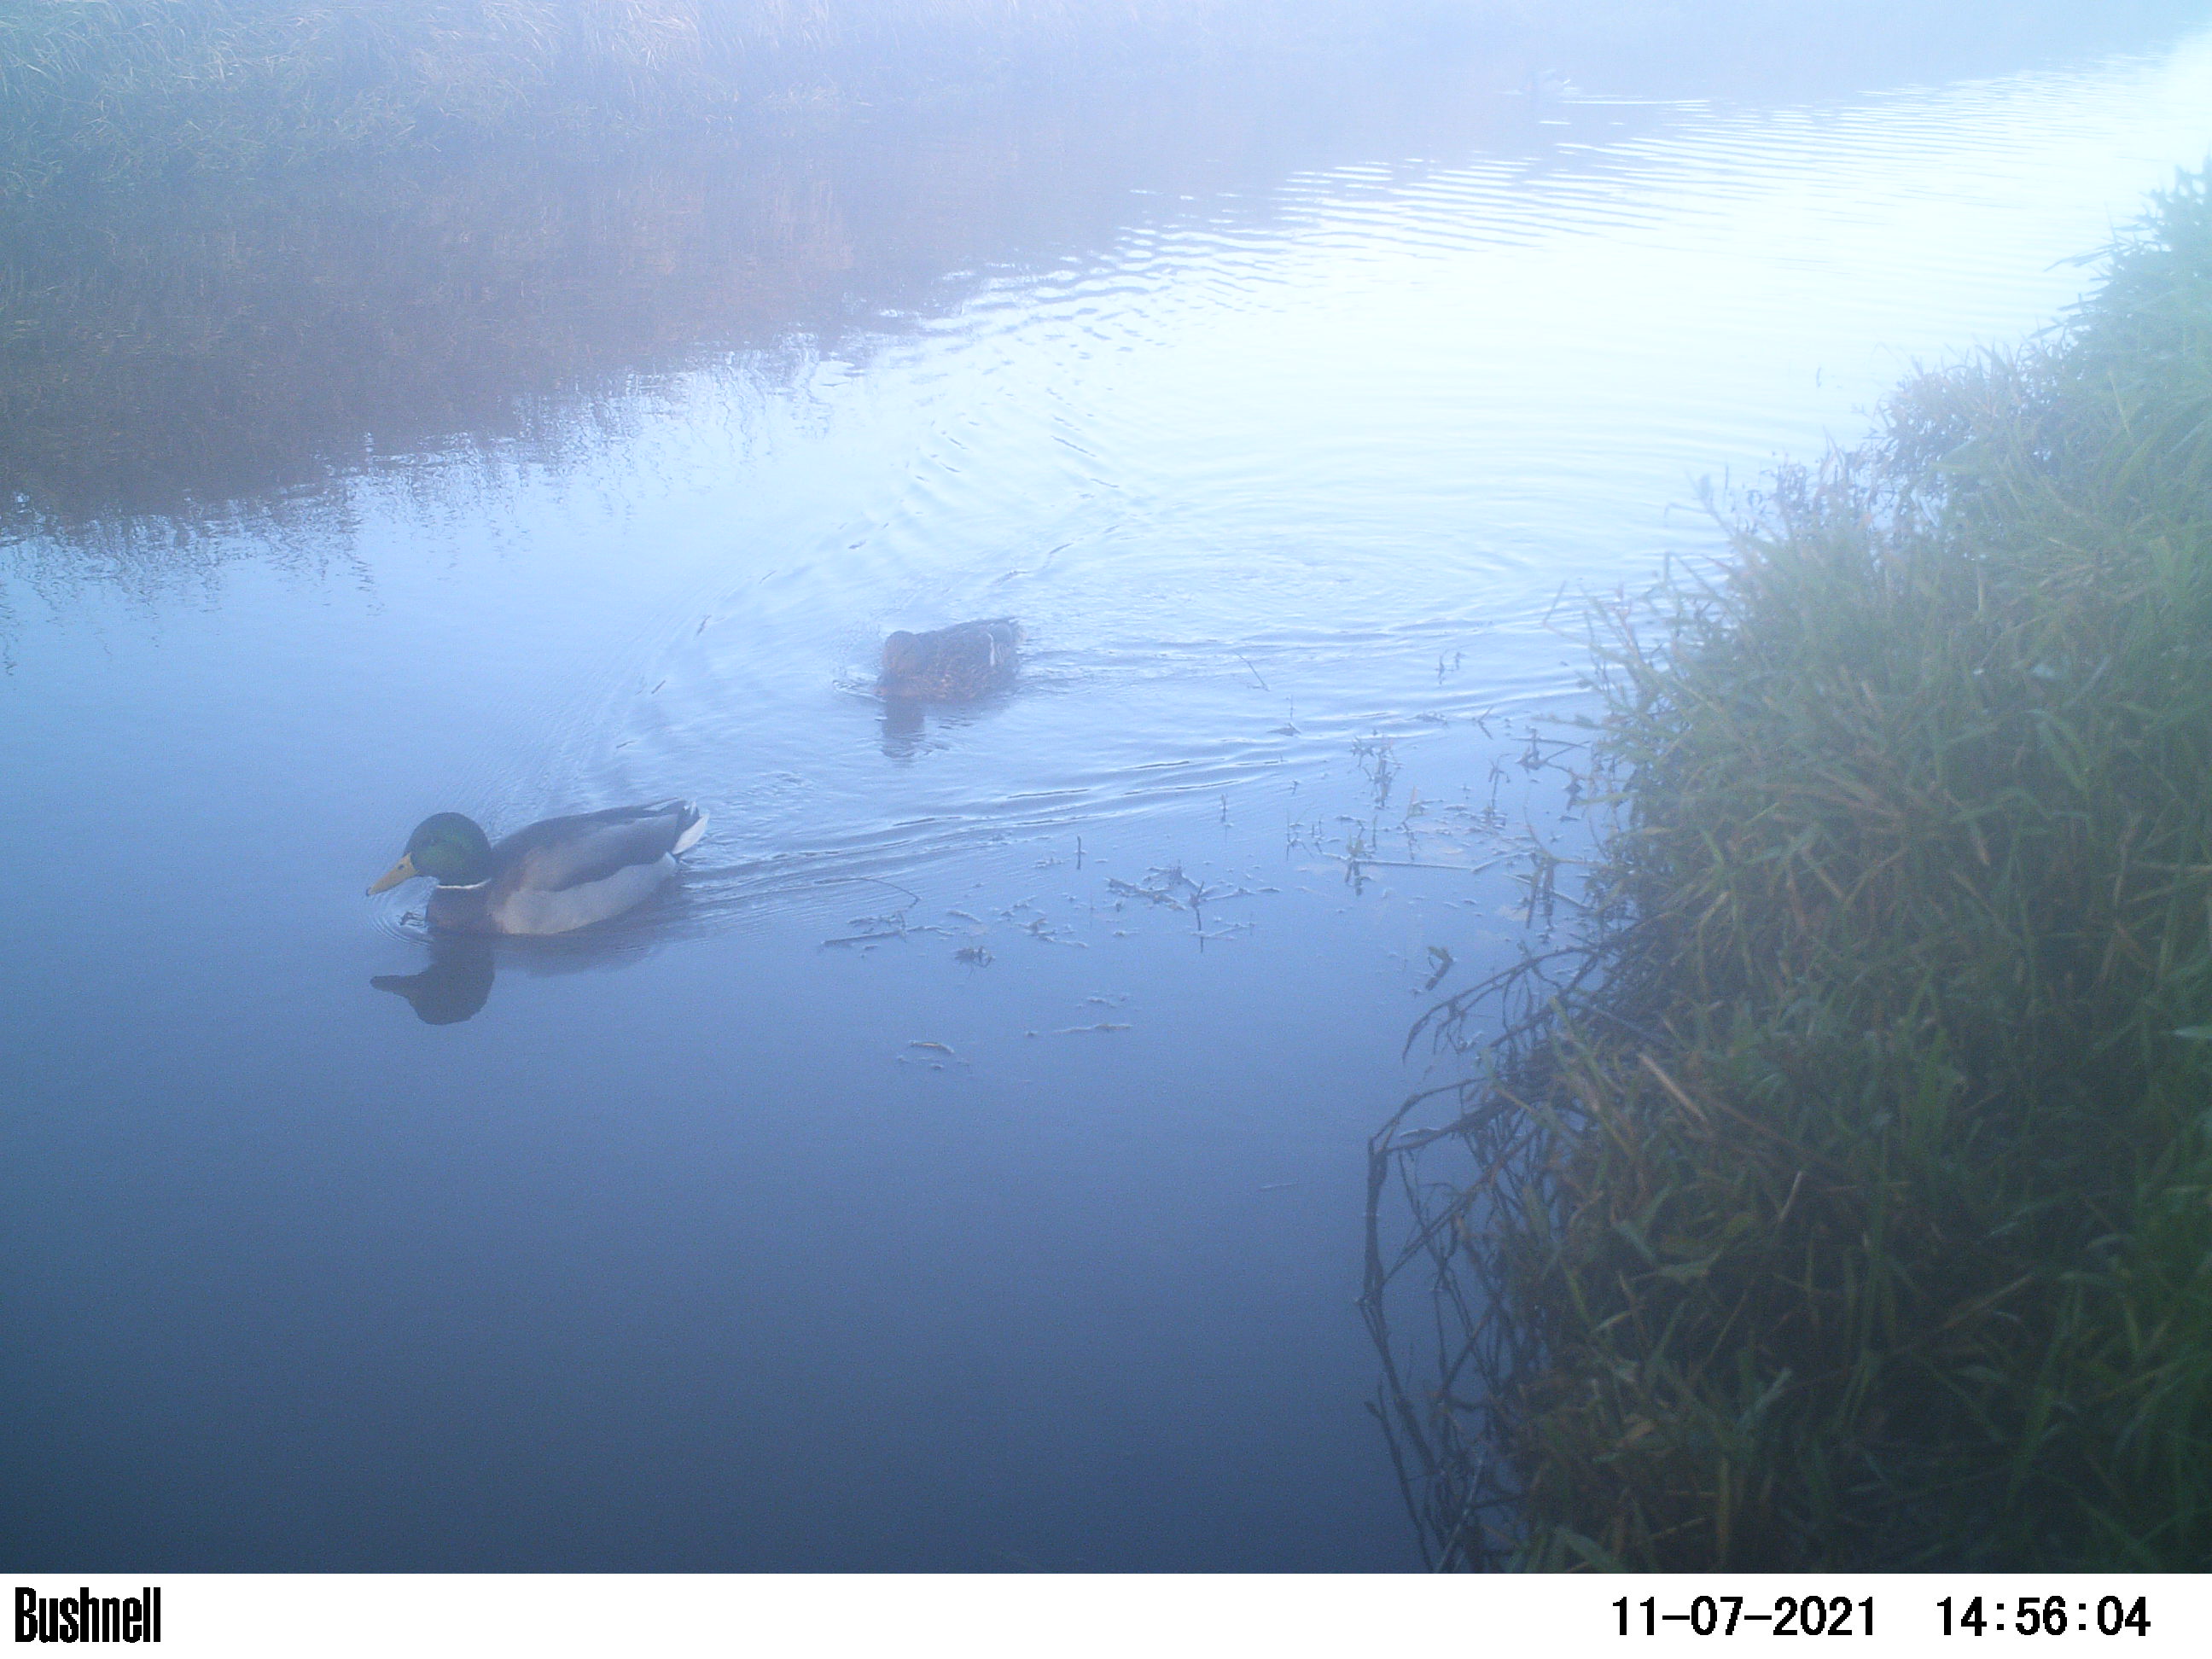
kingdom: Animalia
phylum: Chordata
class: Aves
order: Anseriformes
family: Anatidae
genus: Anas
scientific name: Anas
